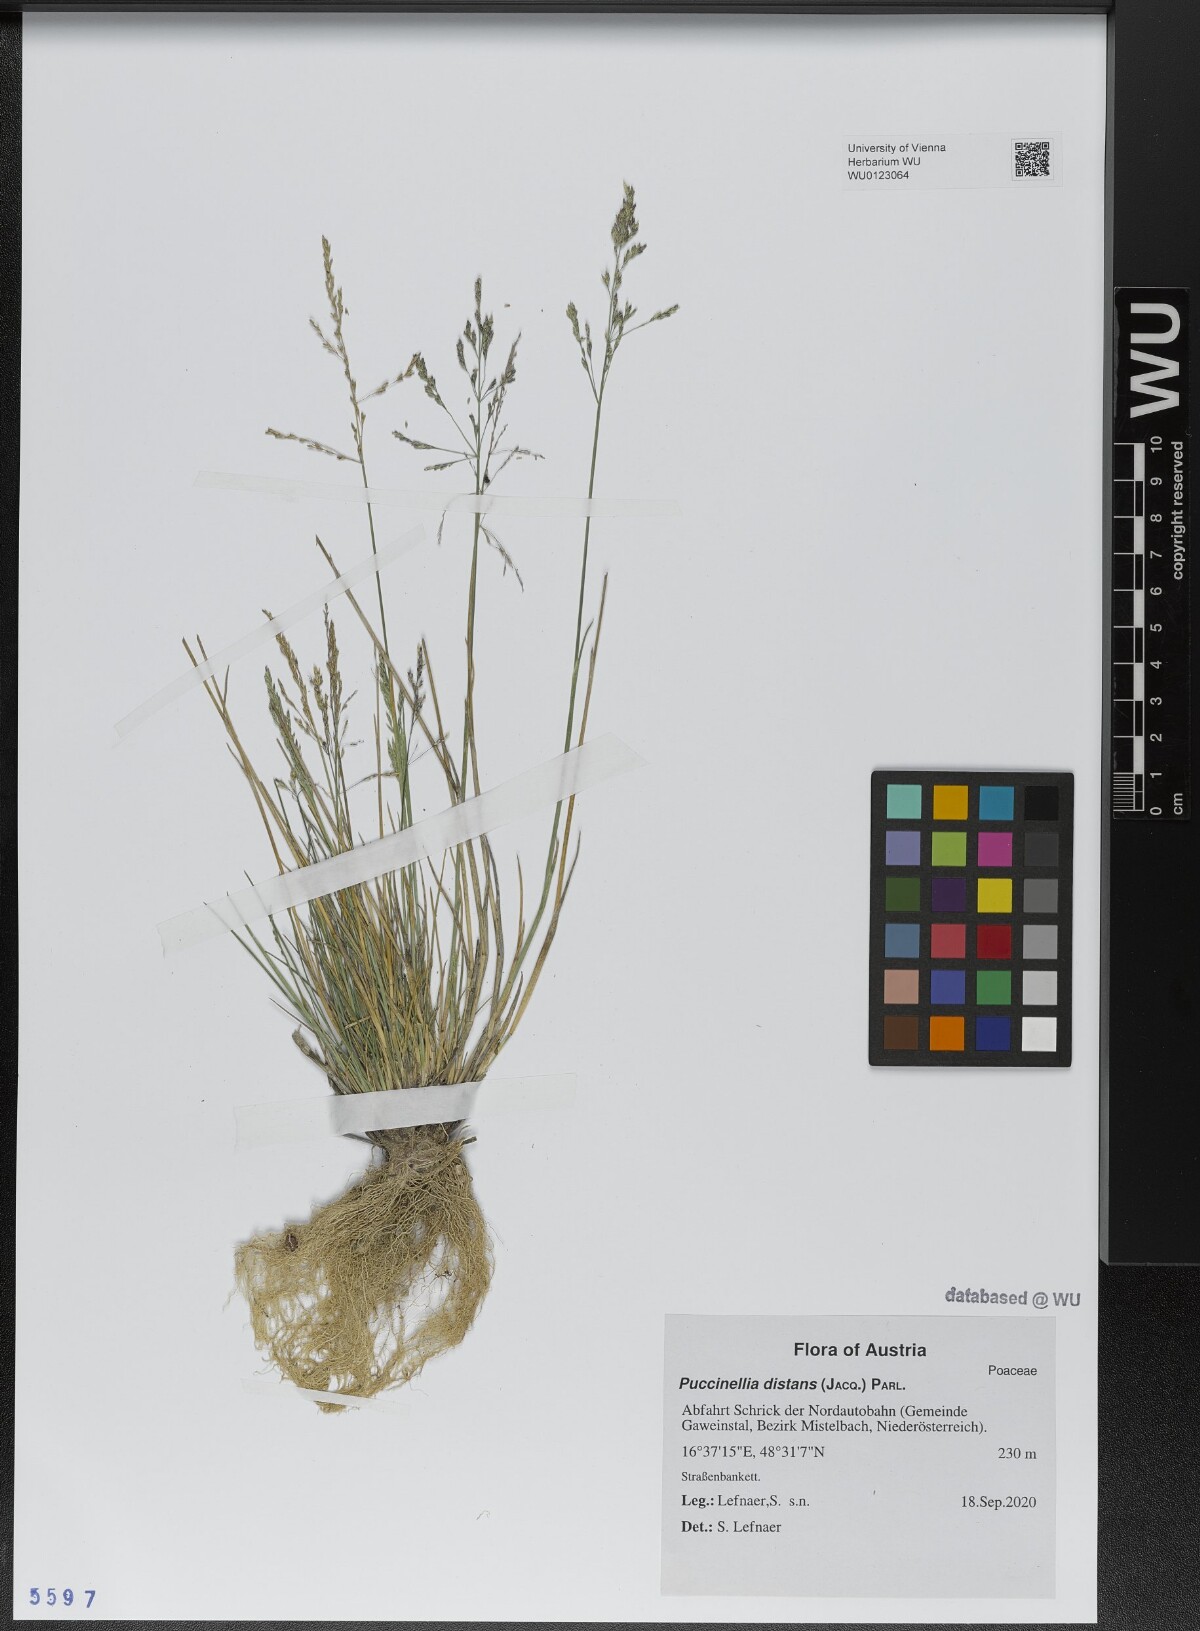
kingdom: Plantae
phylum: Tracheophyta
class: Liliopsida
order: Poales
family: Poaceae
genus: Puccinellia
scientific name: Puccinellia distans
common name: Weeping alkaligrass
